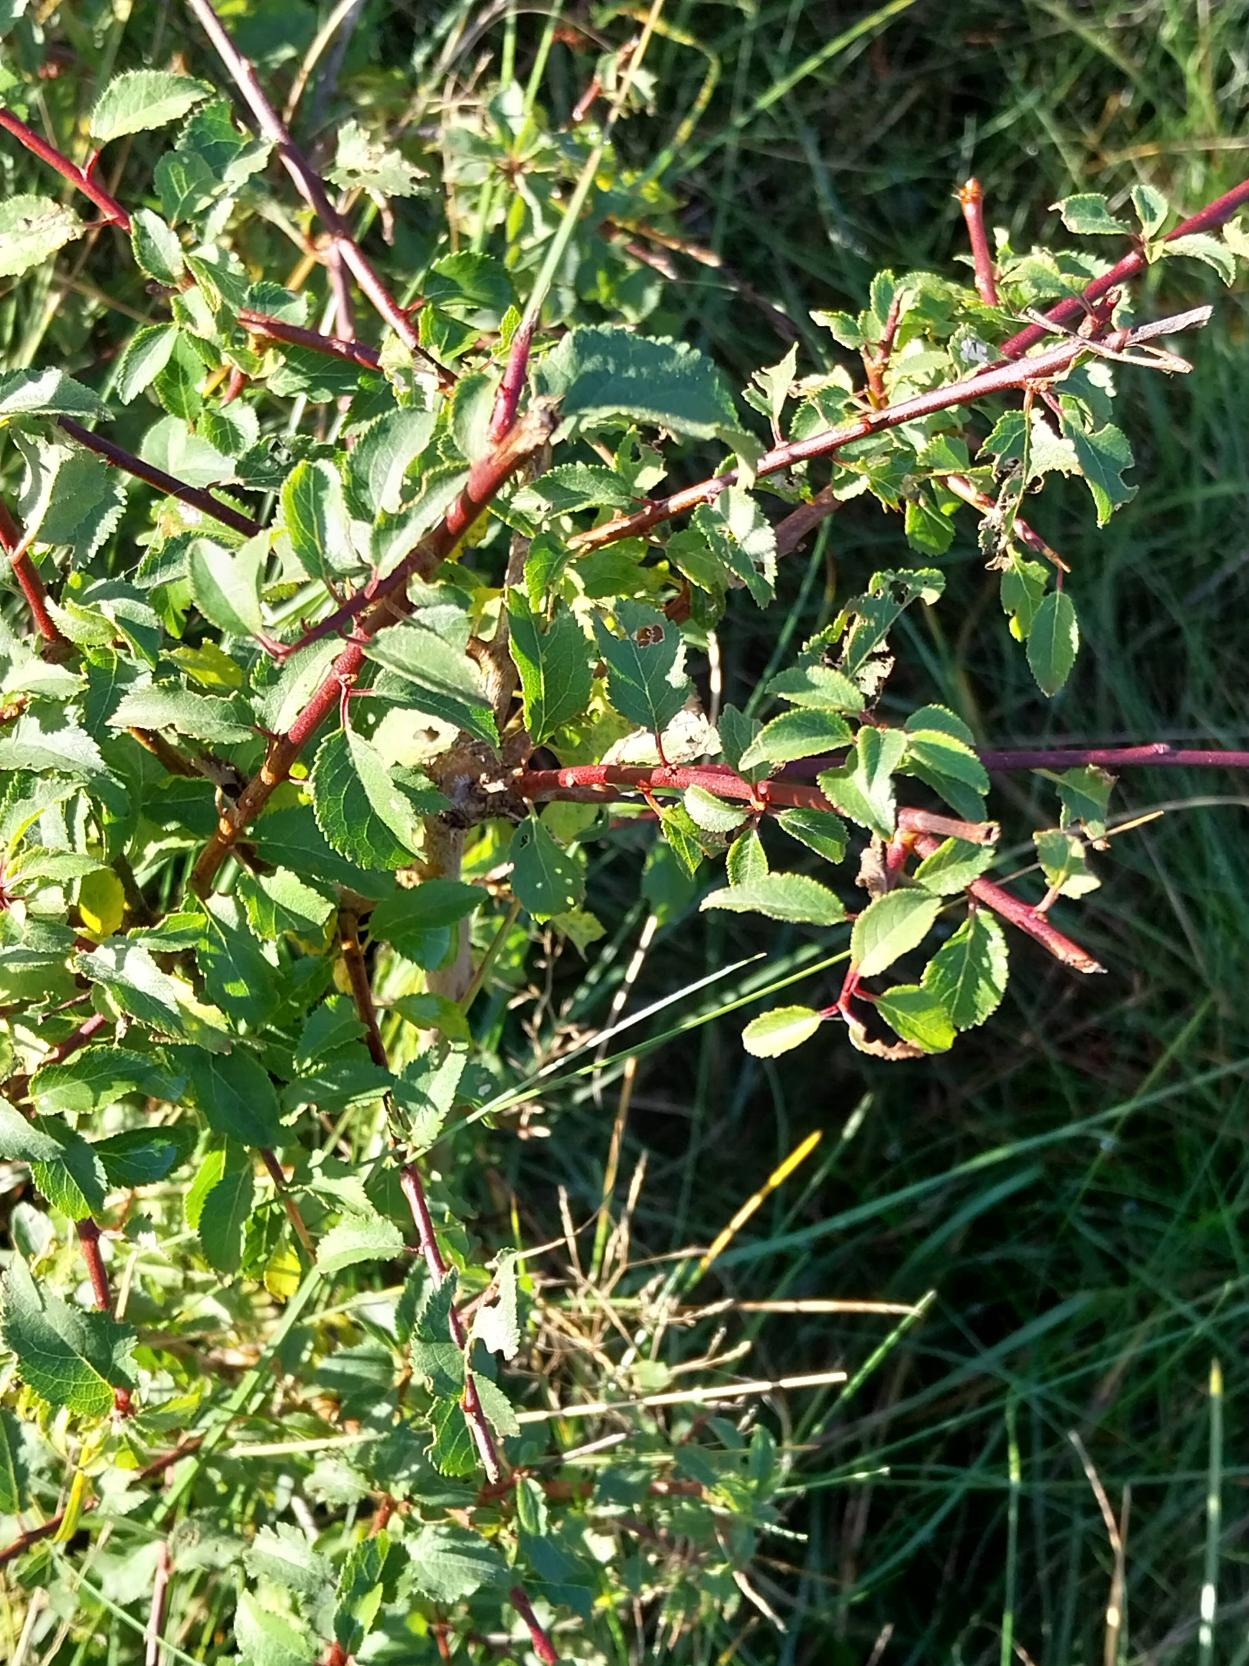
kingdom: Plantae
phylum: Tracheophyta
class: Magnoliopsida
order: Rosales
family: Rosaceae
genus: Prunus
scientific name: Prunus cerasifera
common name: Mirabel
